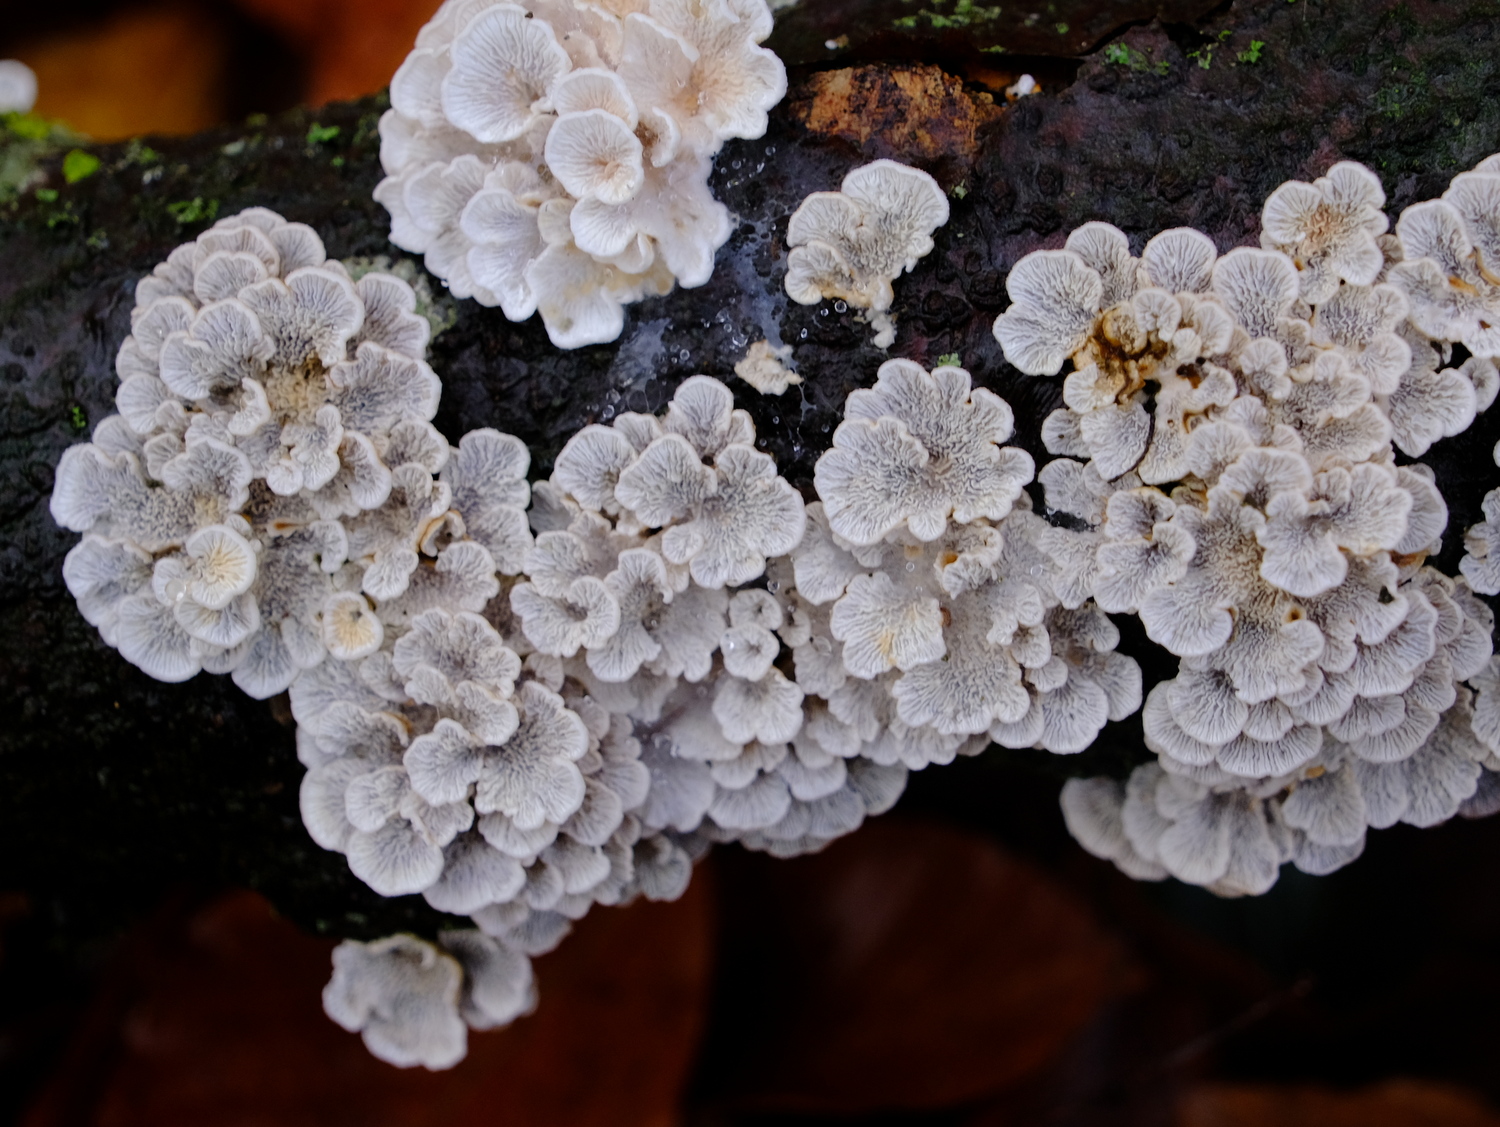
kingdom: Fungi
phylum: Basidiomycota
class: Agaricomycetes
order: Amylocorticiales
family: Amylocorticiaceae
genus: Plicaturopsis
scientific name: Plicaturopsis crispa
